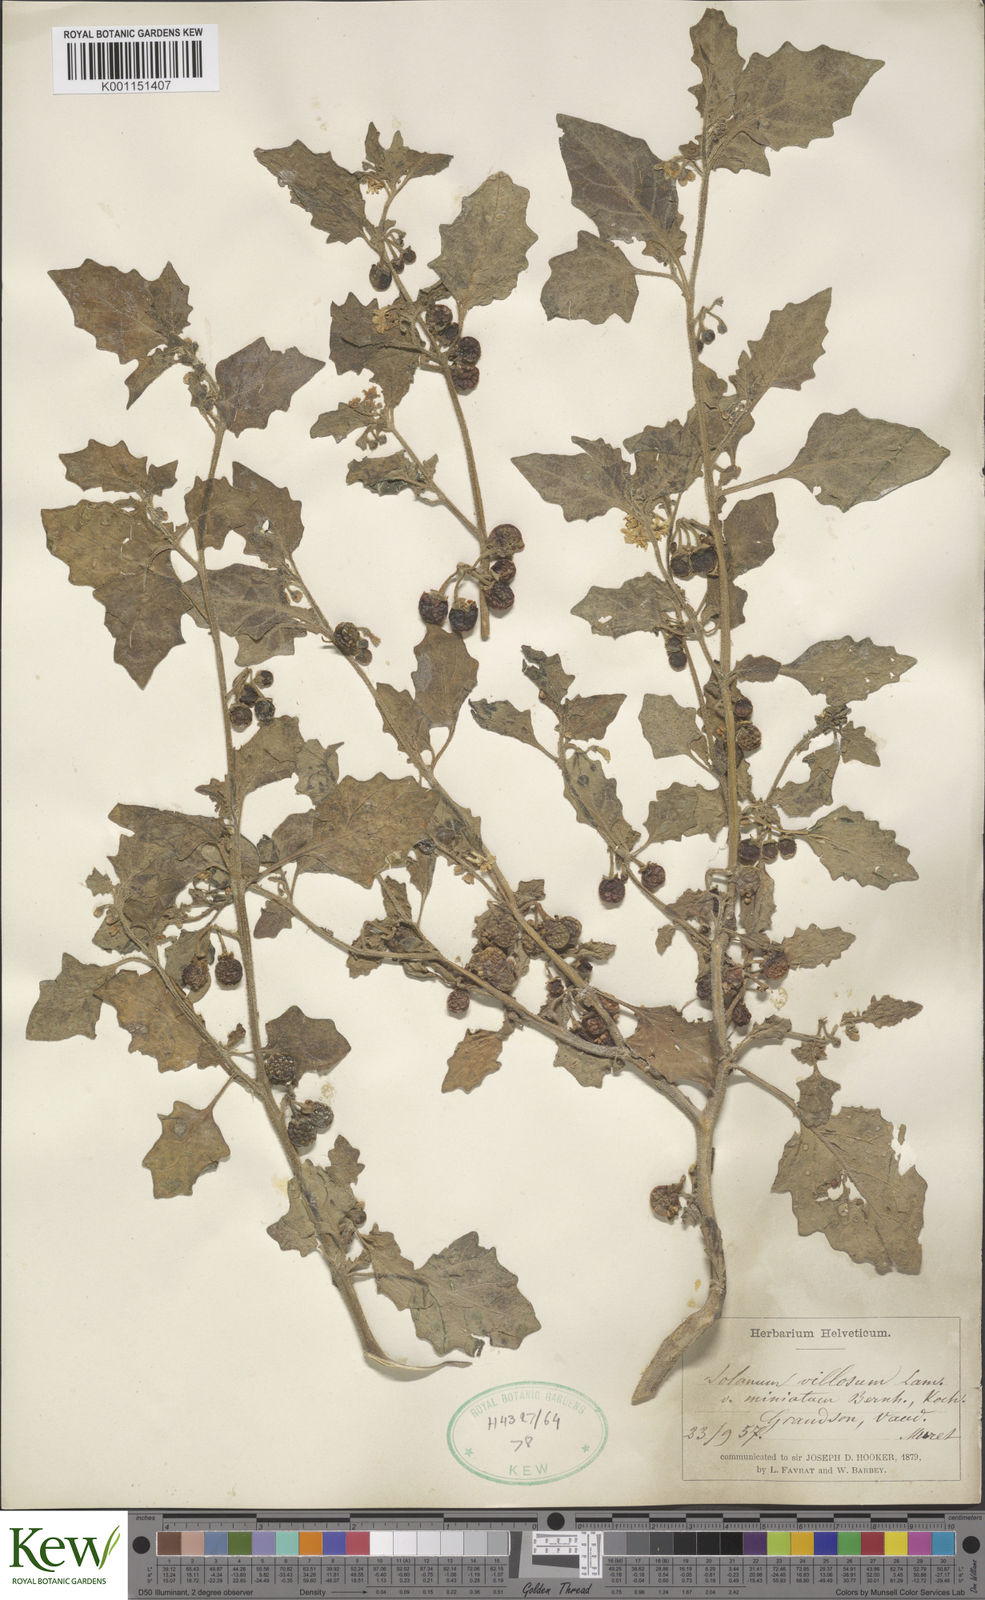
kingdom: Plantae
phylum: Tracheophyta
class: Magnoliopsida
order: Solanales
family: Solanaceae
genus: Solanum
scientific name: Solanum villosum
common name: Red nightshade
